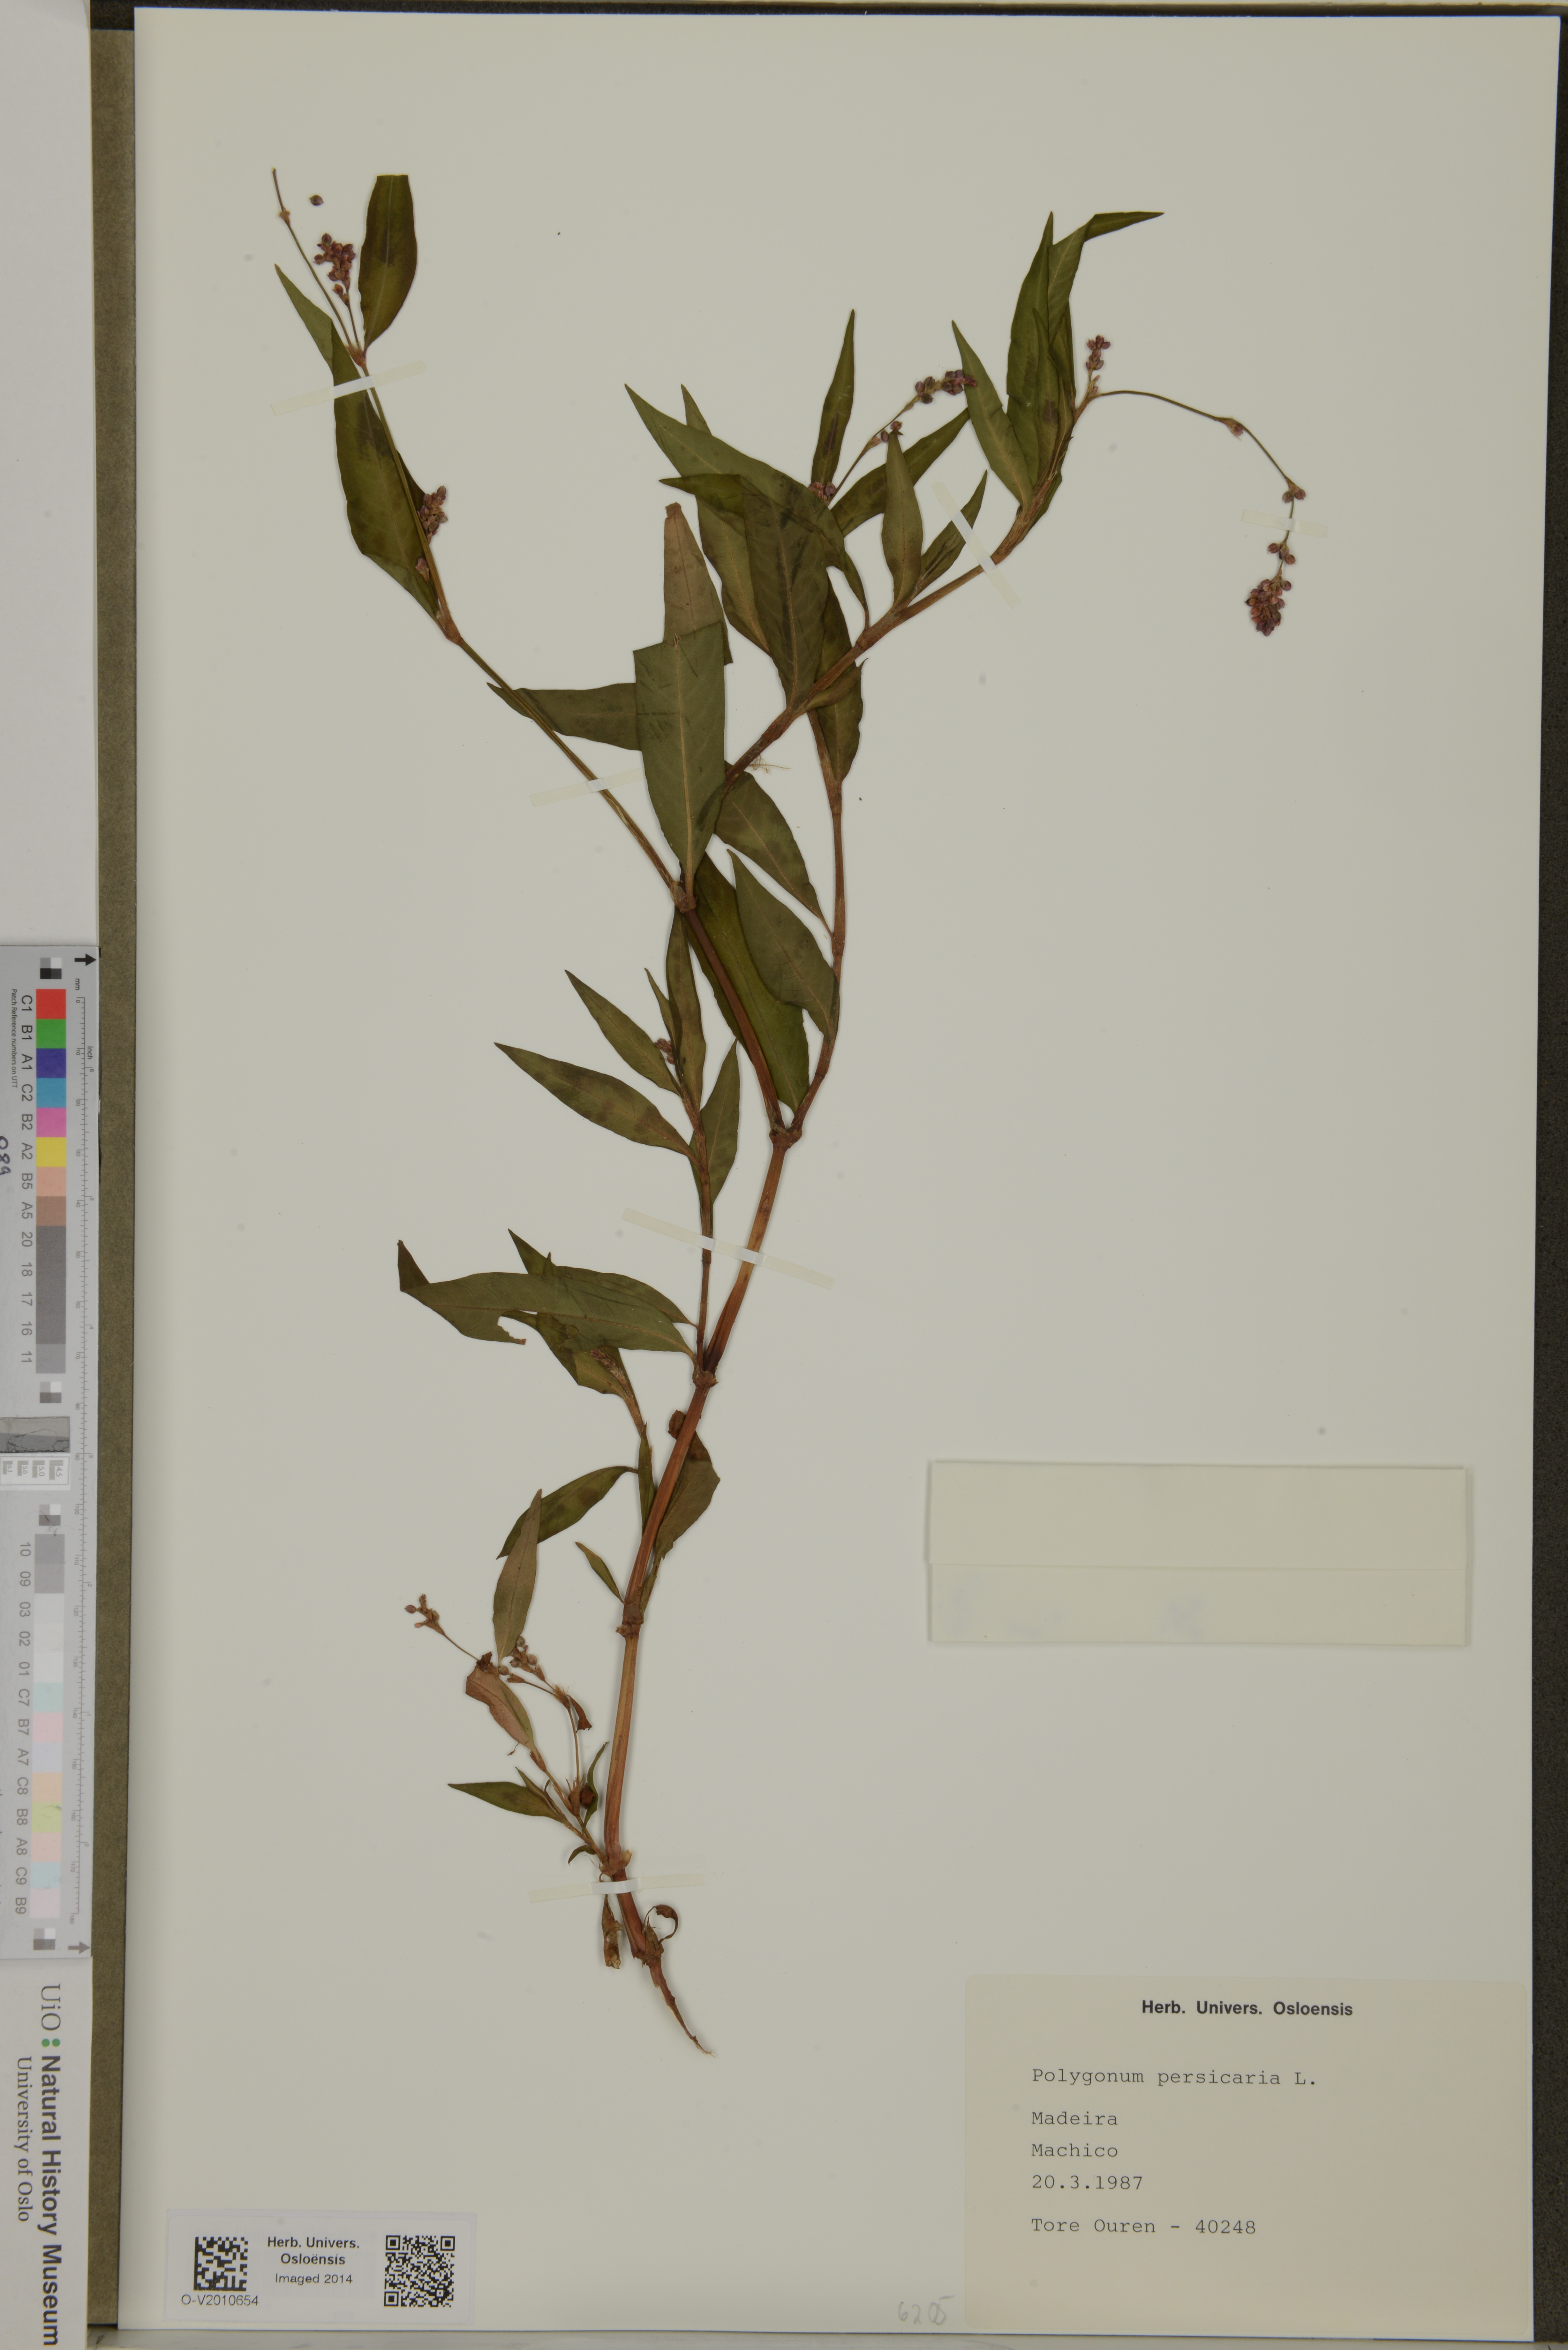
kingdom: Plantae
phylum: Tracheophyta
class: Magnoliopsida
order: Caryophyllales
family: Polygonaceae
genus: Persicaria
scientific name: Persicaria maculosa
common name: Redshank
